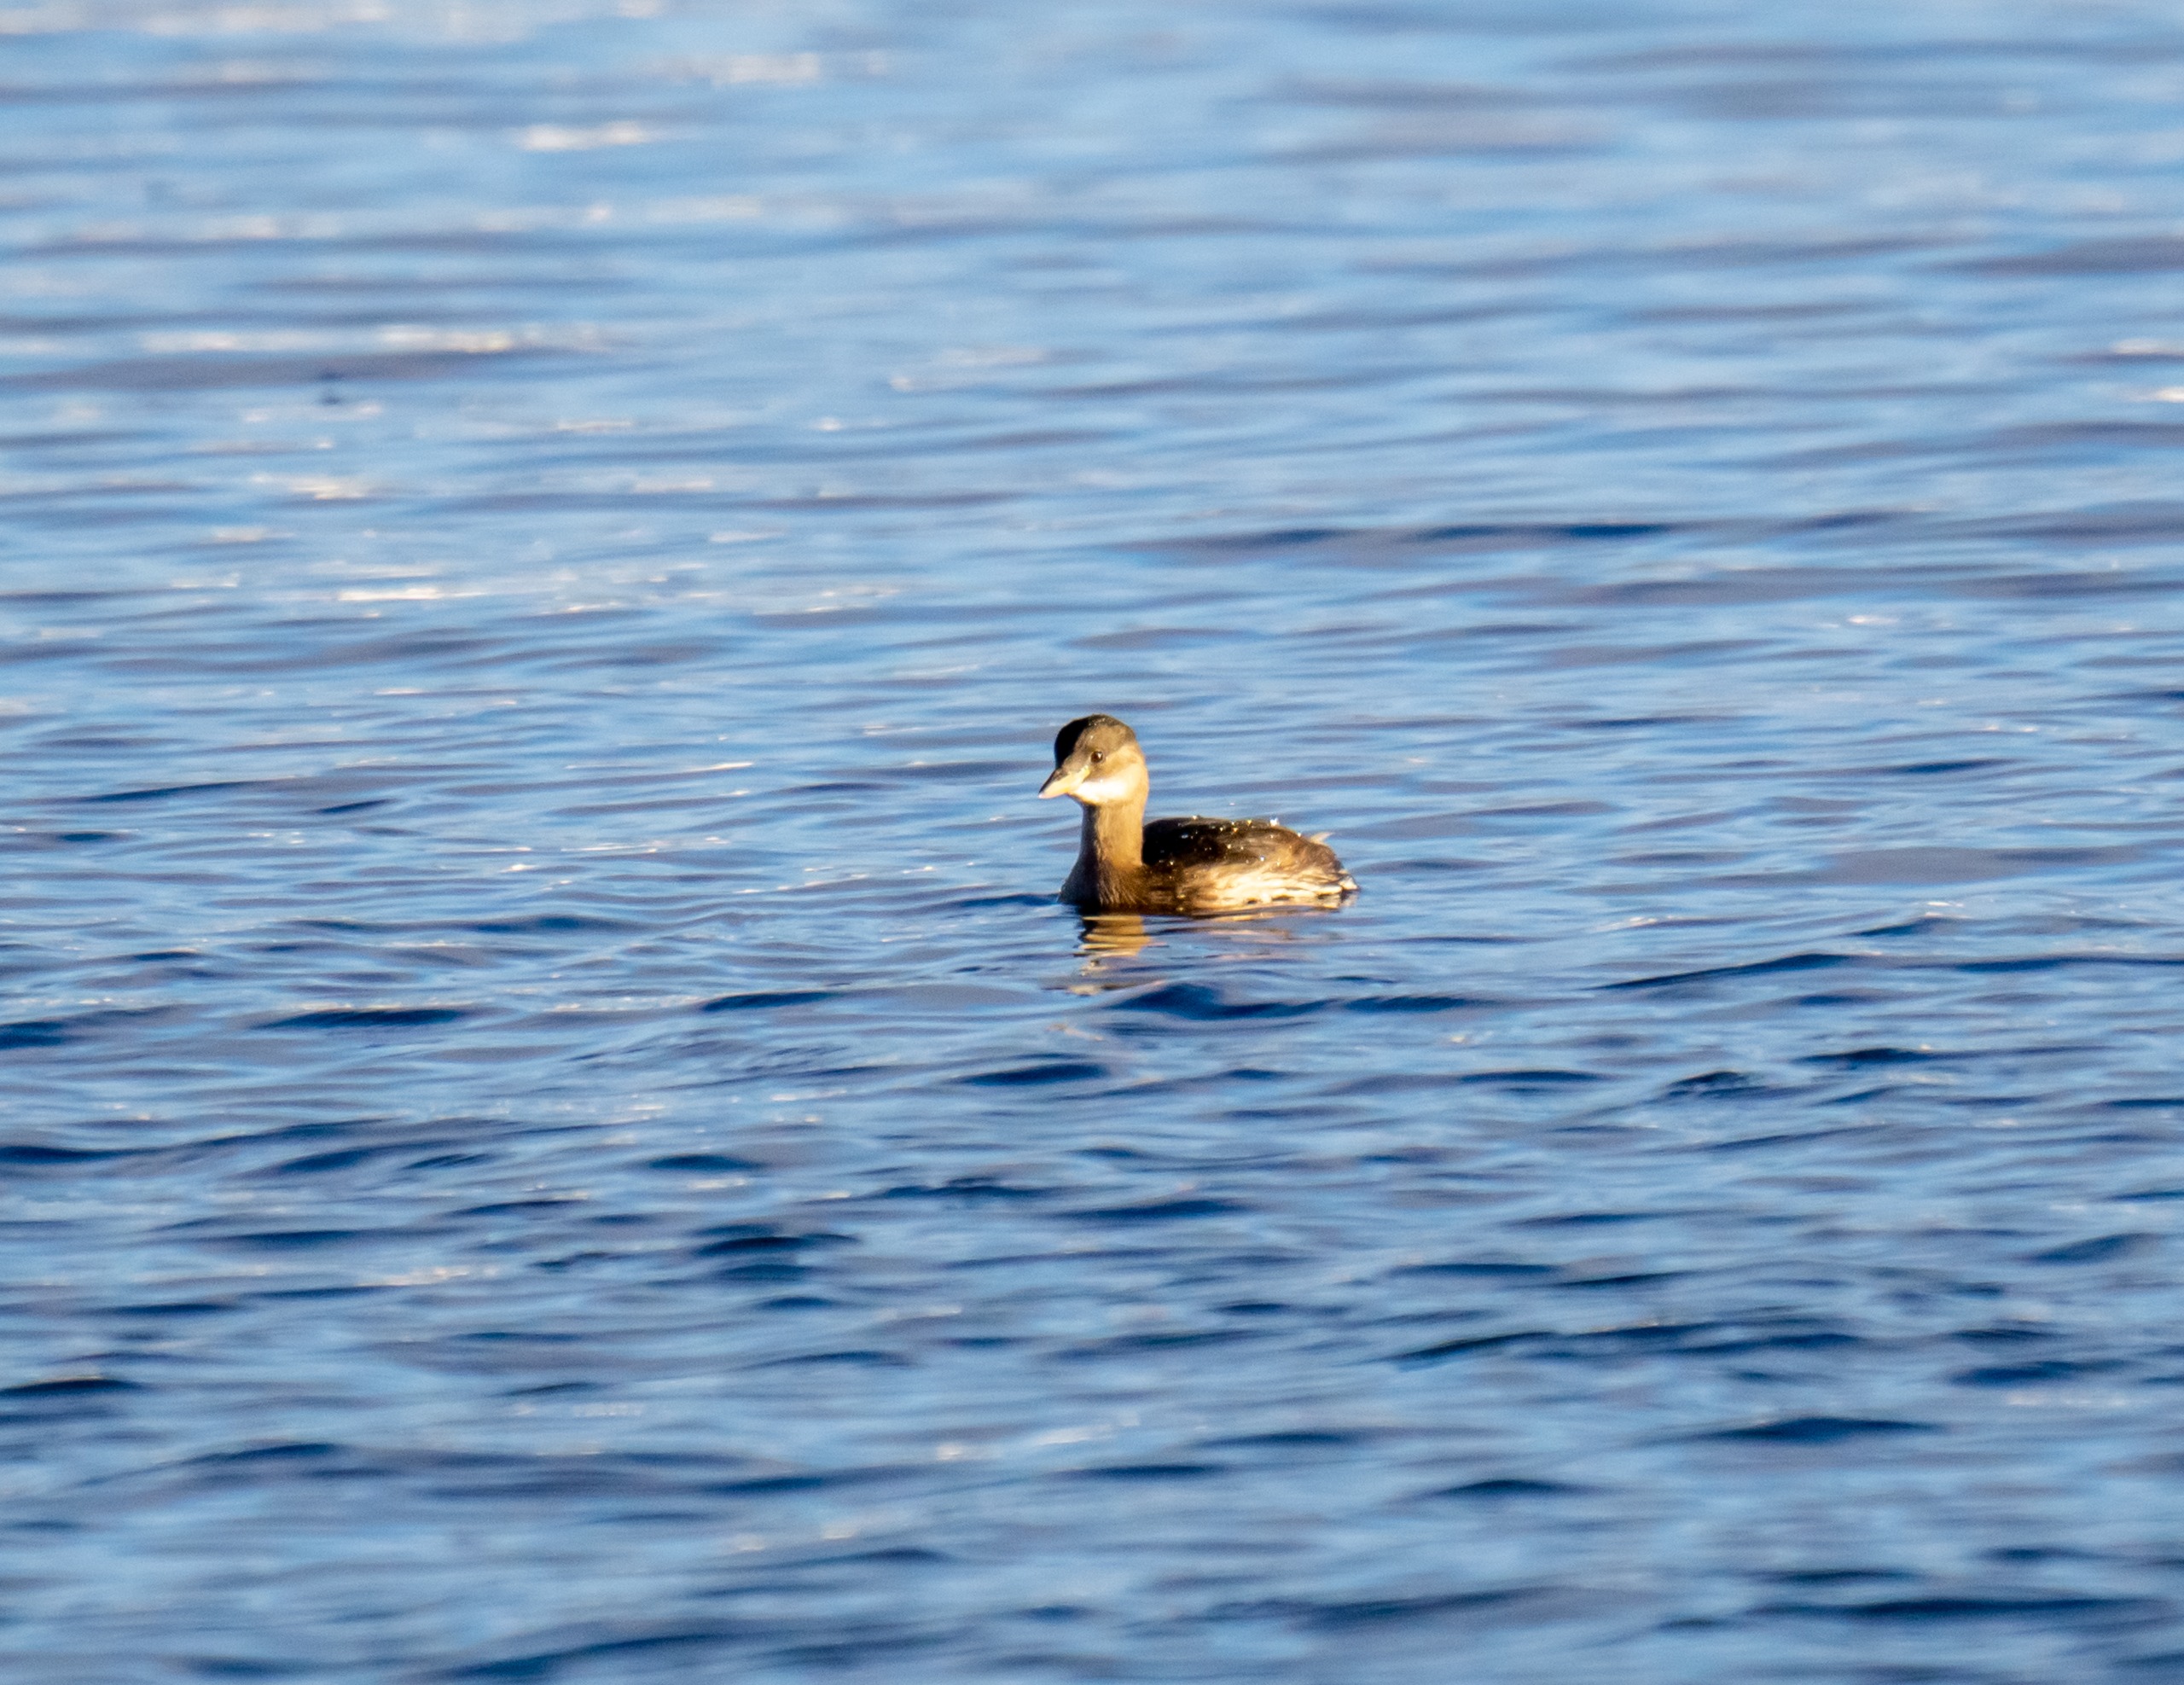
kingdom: Animalia
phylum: Chordata
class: Aves
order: Podicipediformes
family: Podicipedidae
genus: Tachybaptus
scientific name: Tachybaptus ruficollis
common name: Lille lappedykker
